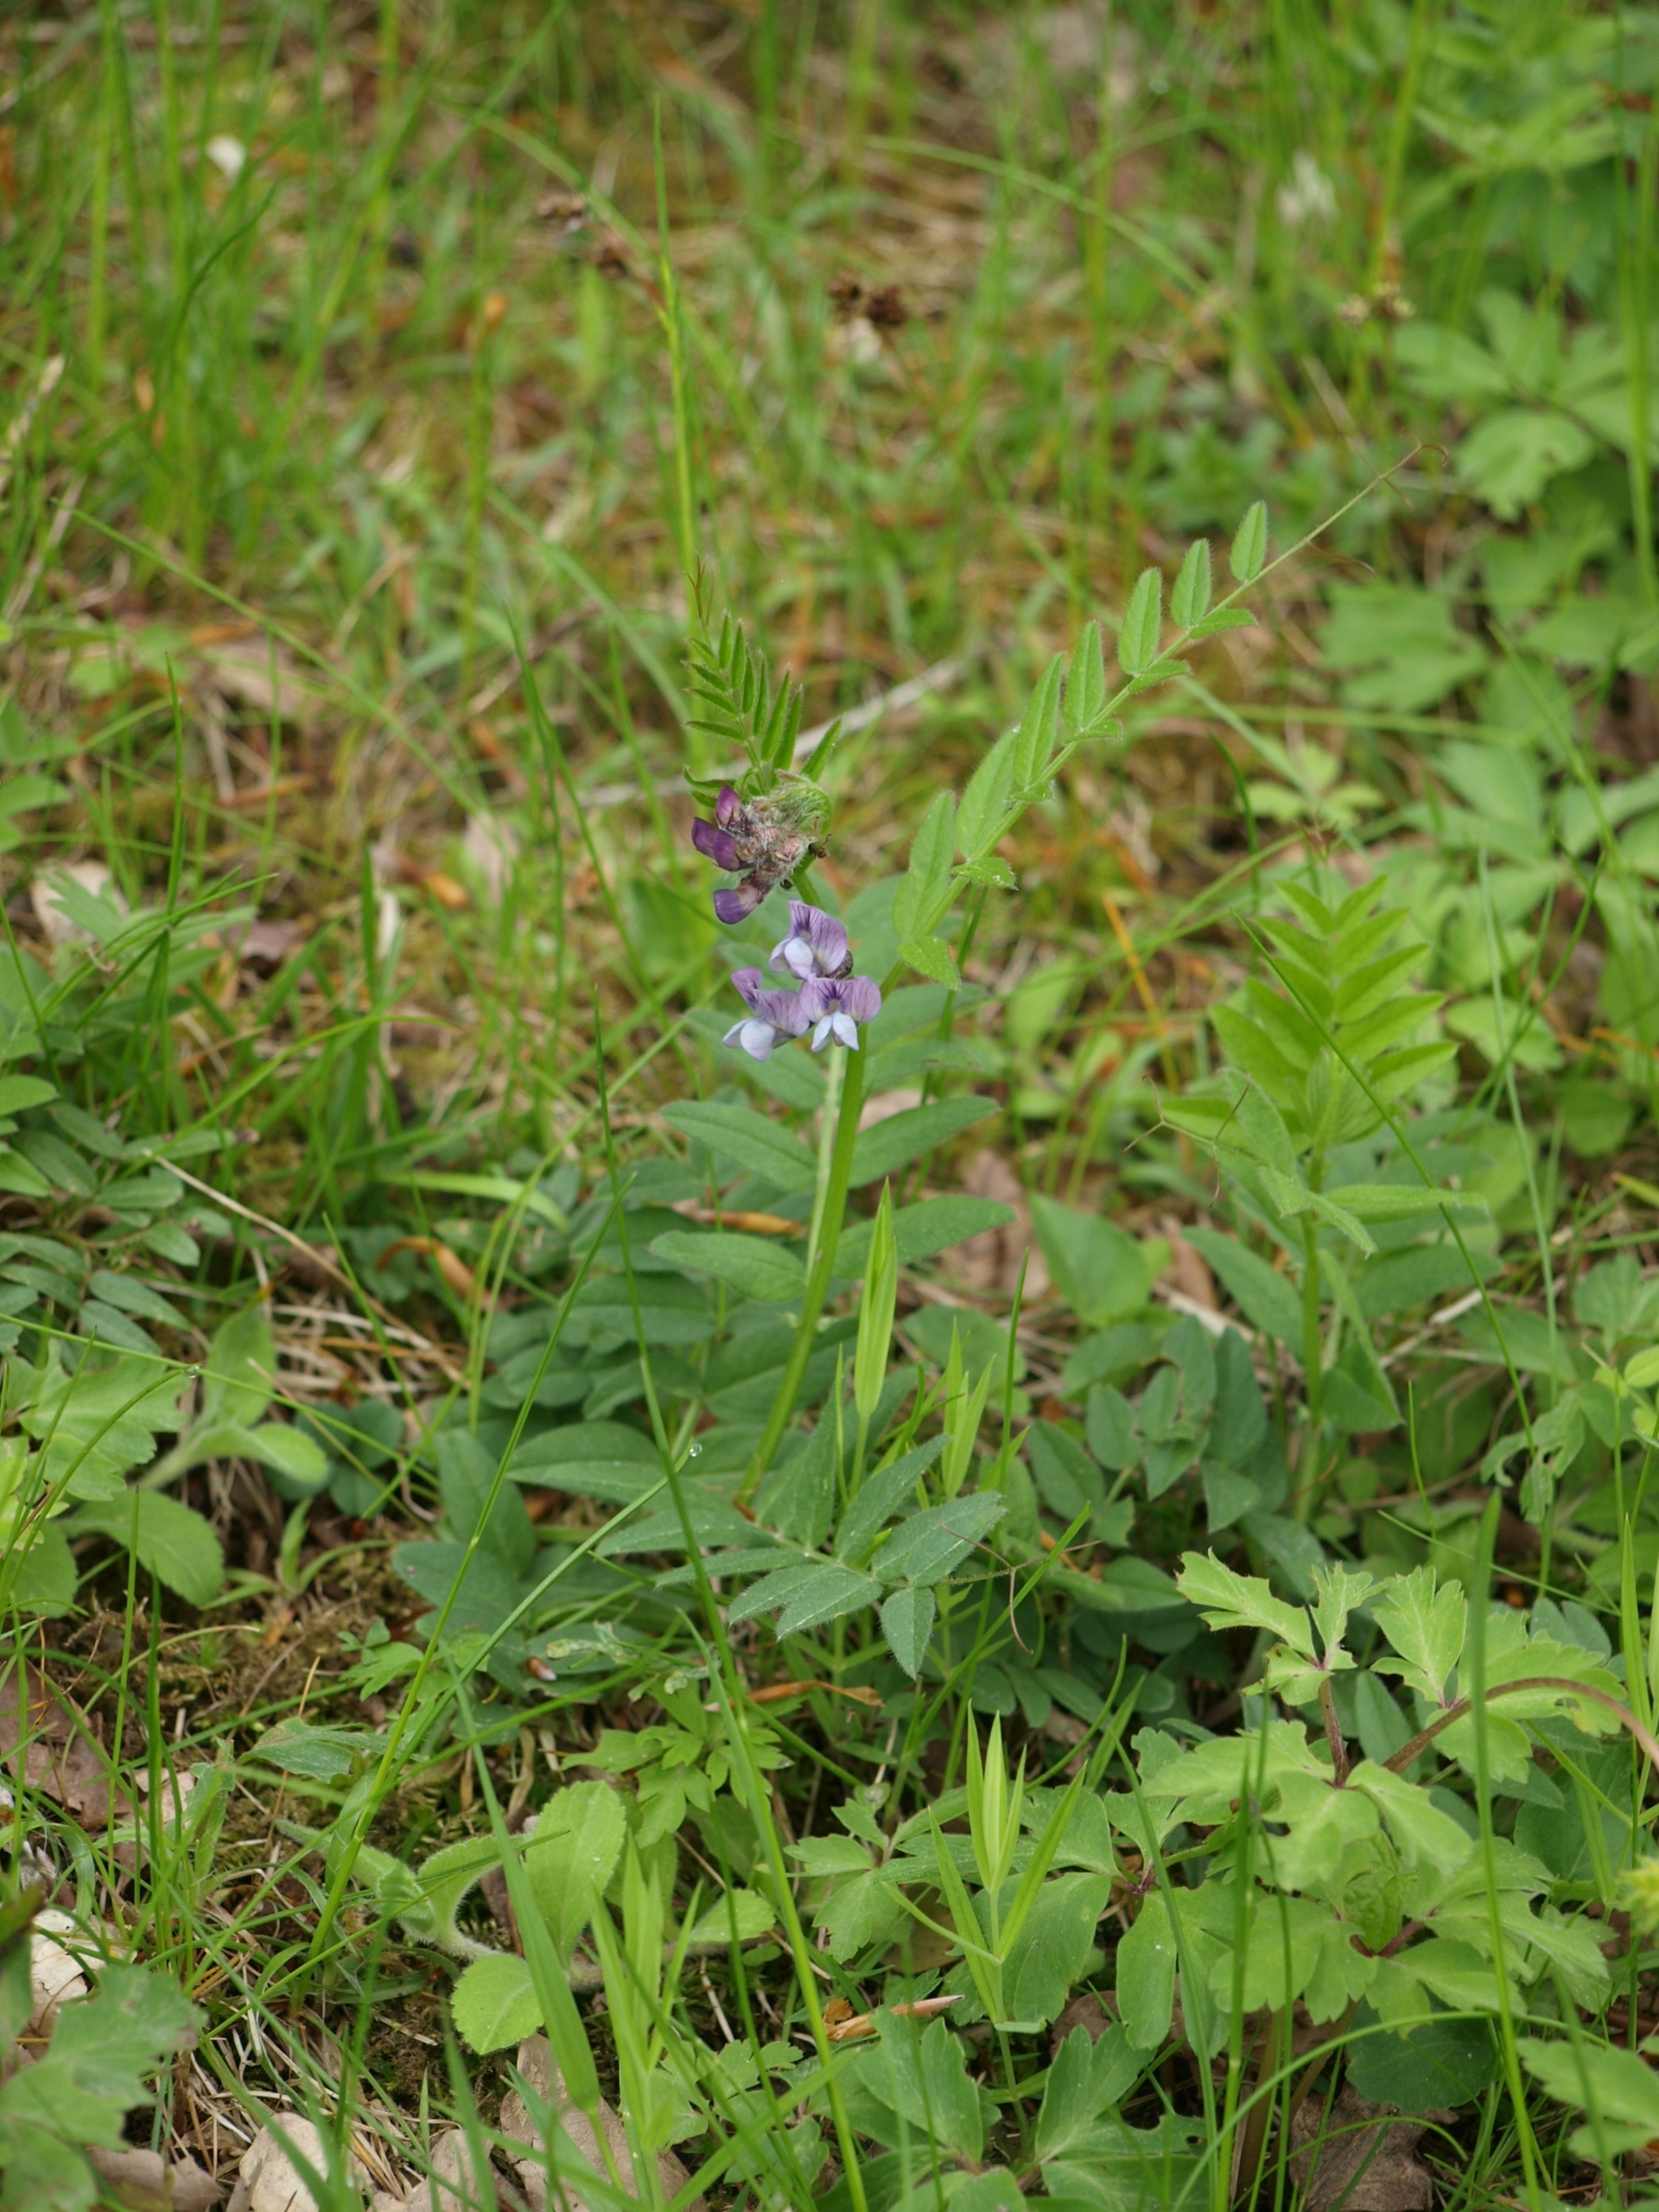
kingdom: Plantae
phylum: Tracheophyta
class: Magnoliopsida
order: Fabales
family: Fabaceae
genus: Vicia
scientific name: Vicia sepium
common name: Gærde-vikke
